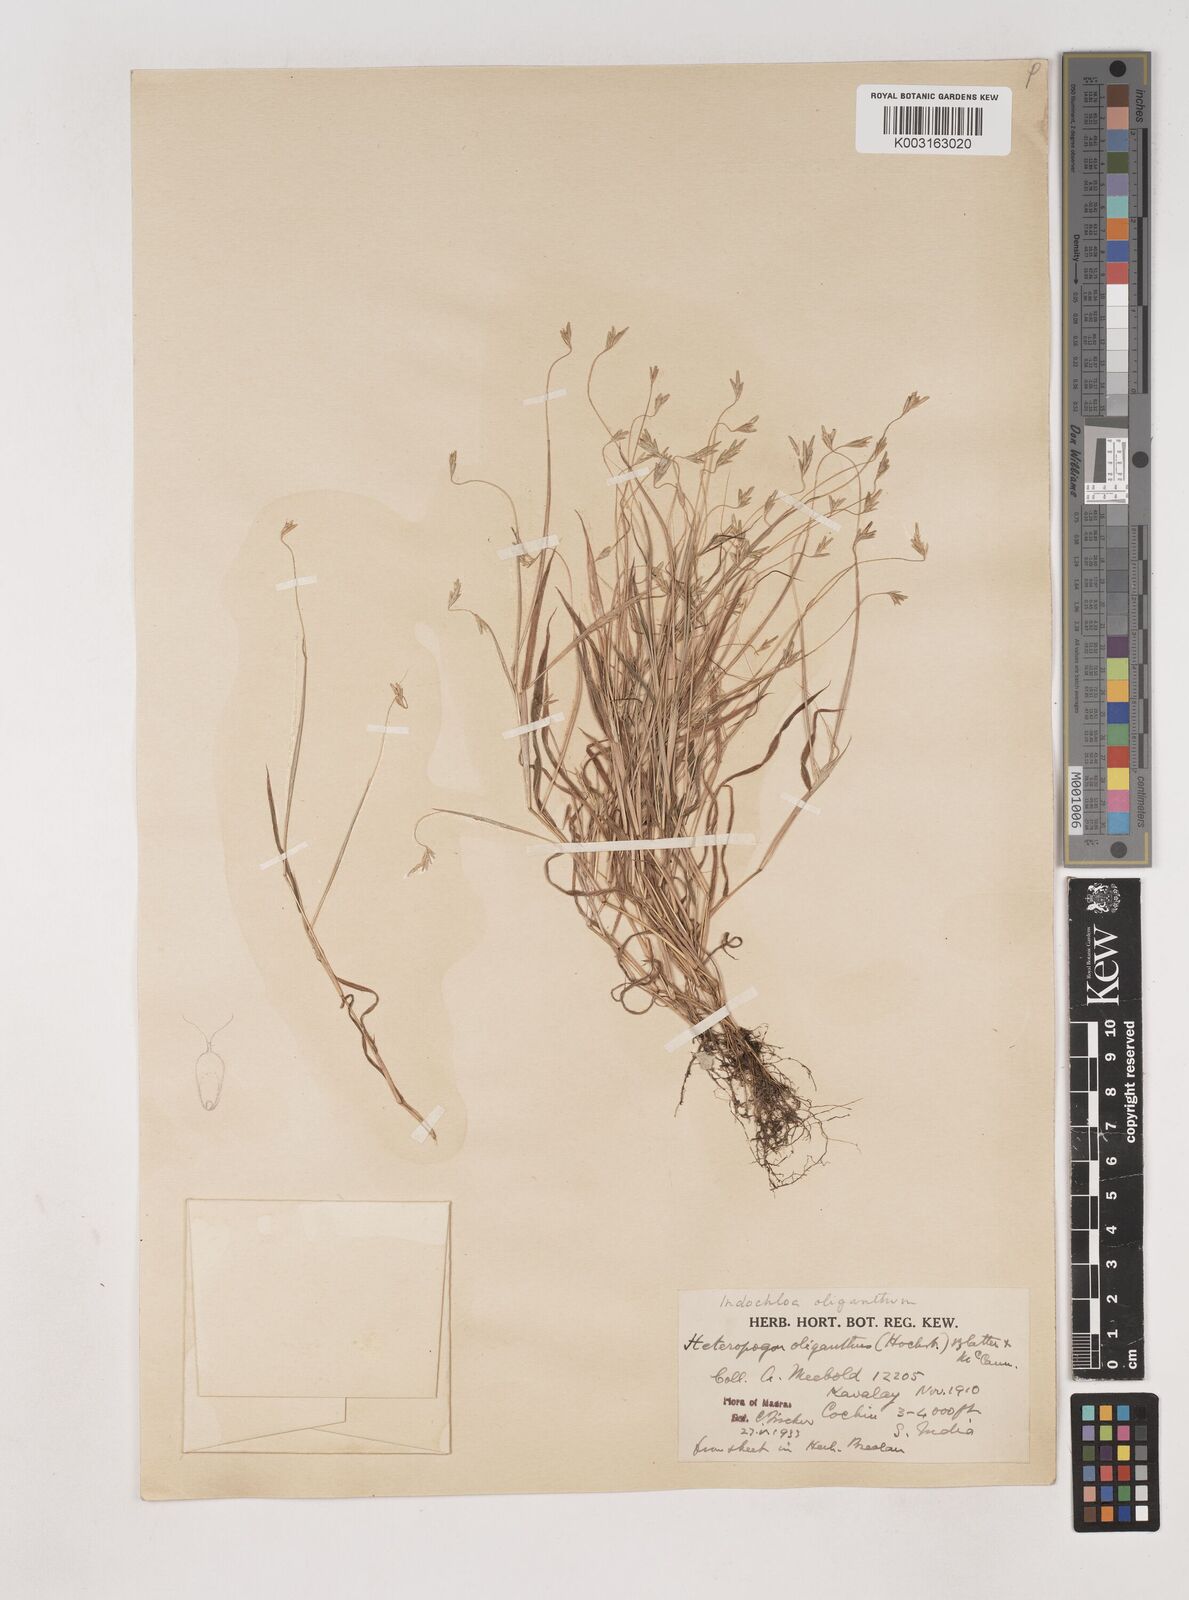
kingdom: Plantae
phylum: Tracheophyta
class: Liliopsida
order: Poales
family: Poaceae
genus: Euclasta
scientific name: Euclasta oligantha
